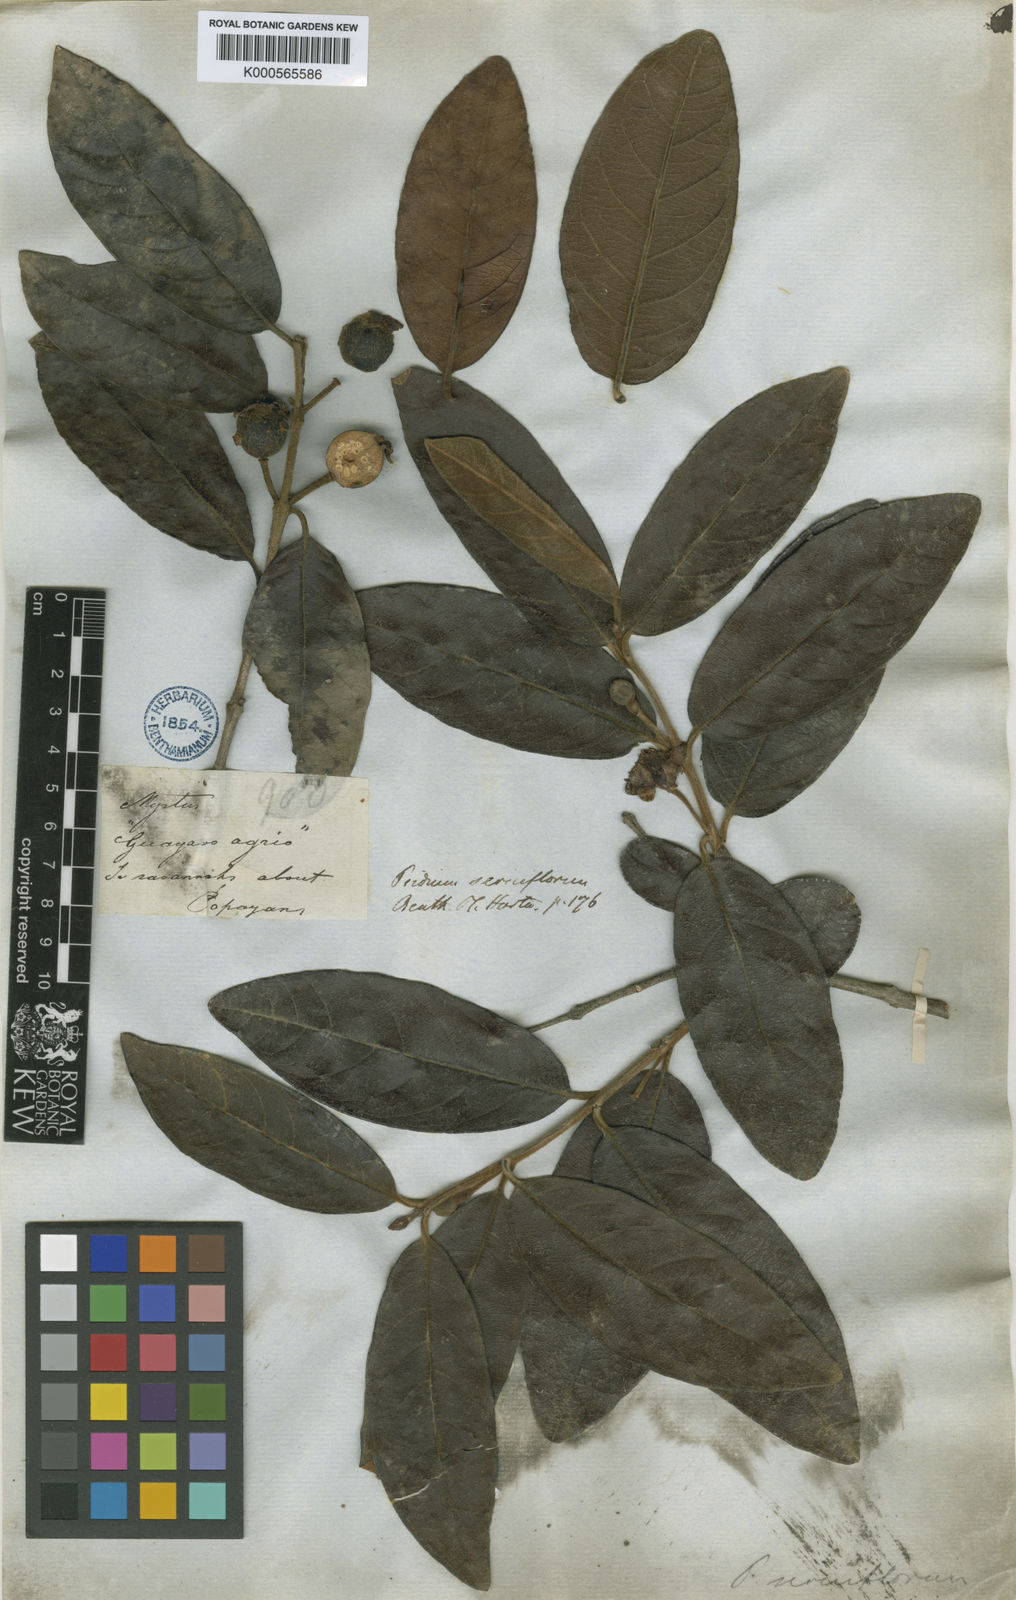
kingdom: Plantae
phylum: Tracheophyta
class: Magnoliopsida
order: Myrtales
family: Myrtaceae
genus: Psidium
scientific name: Psidium guineense
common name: Brazilian guava
